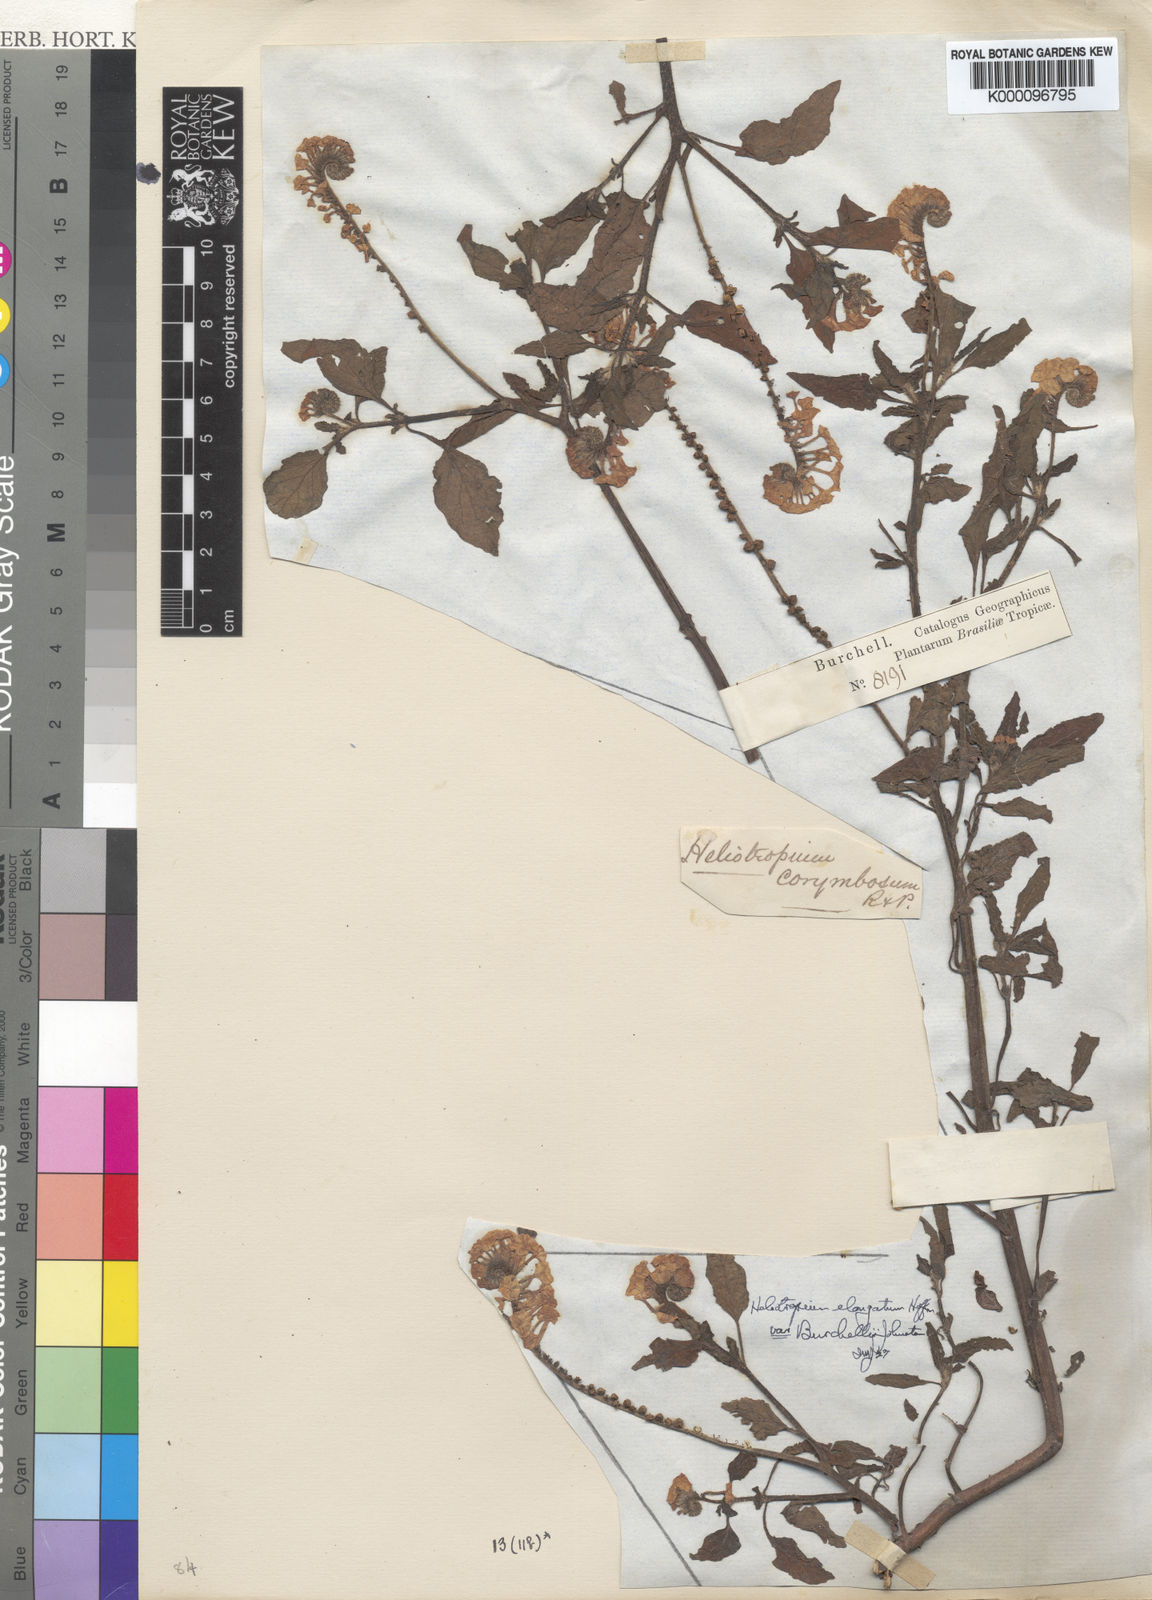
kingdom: Plantae
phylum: Tracheophyta
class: Magnoliopsida
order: Boraginales
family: Heliotropiaceae
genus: Heliotropium
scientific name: Heliotropium elongatum
